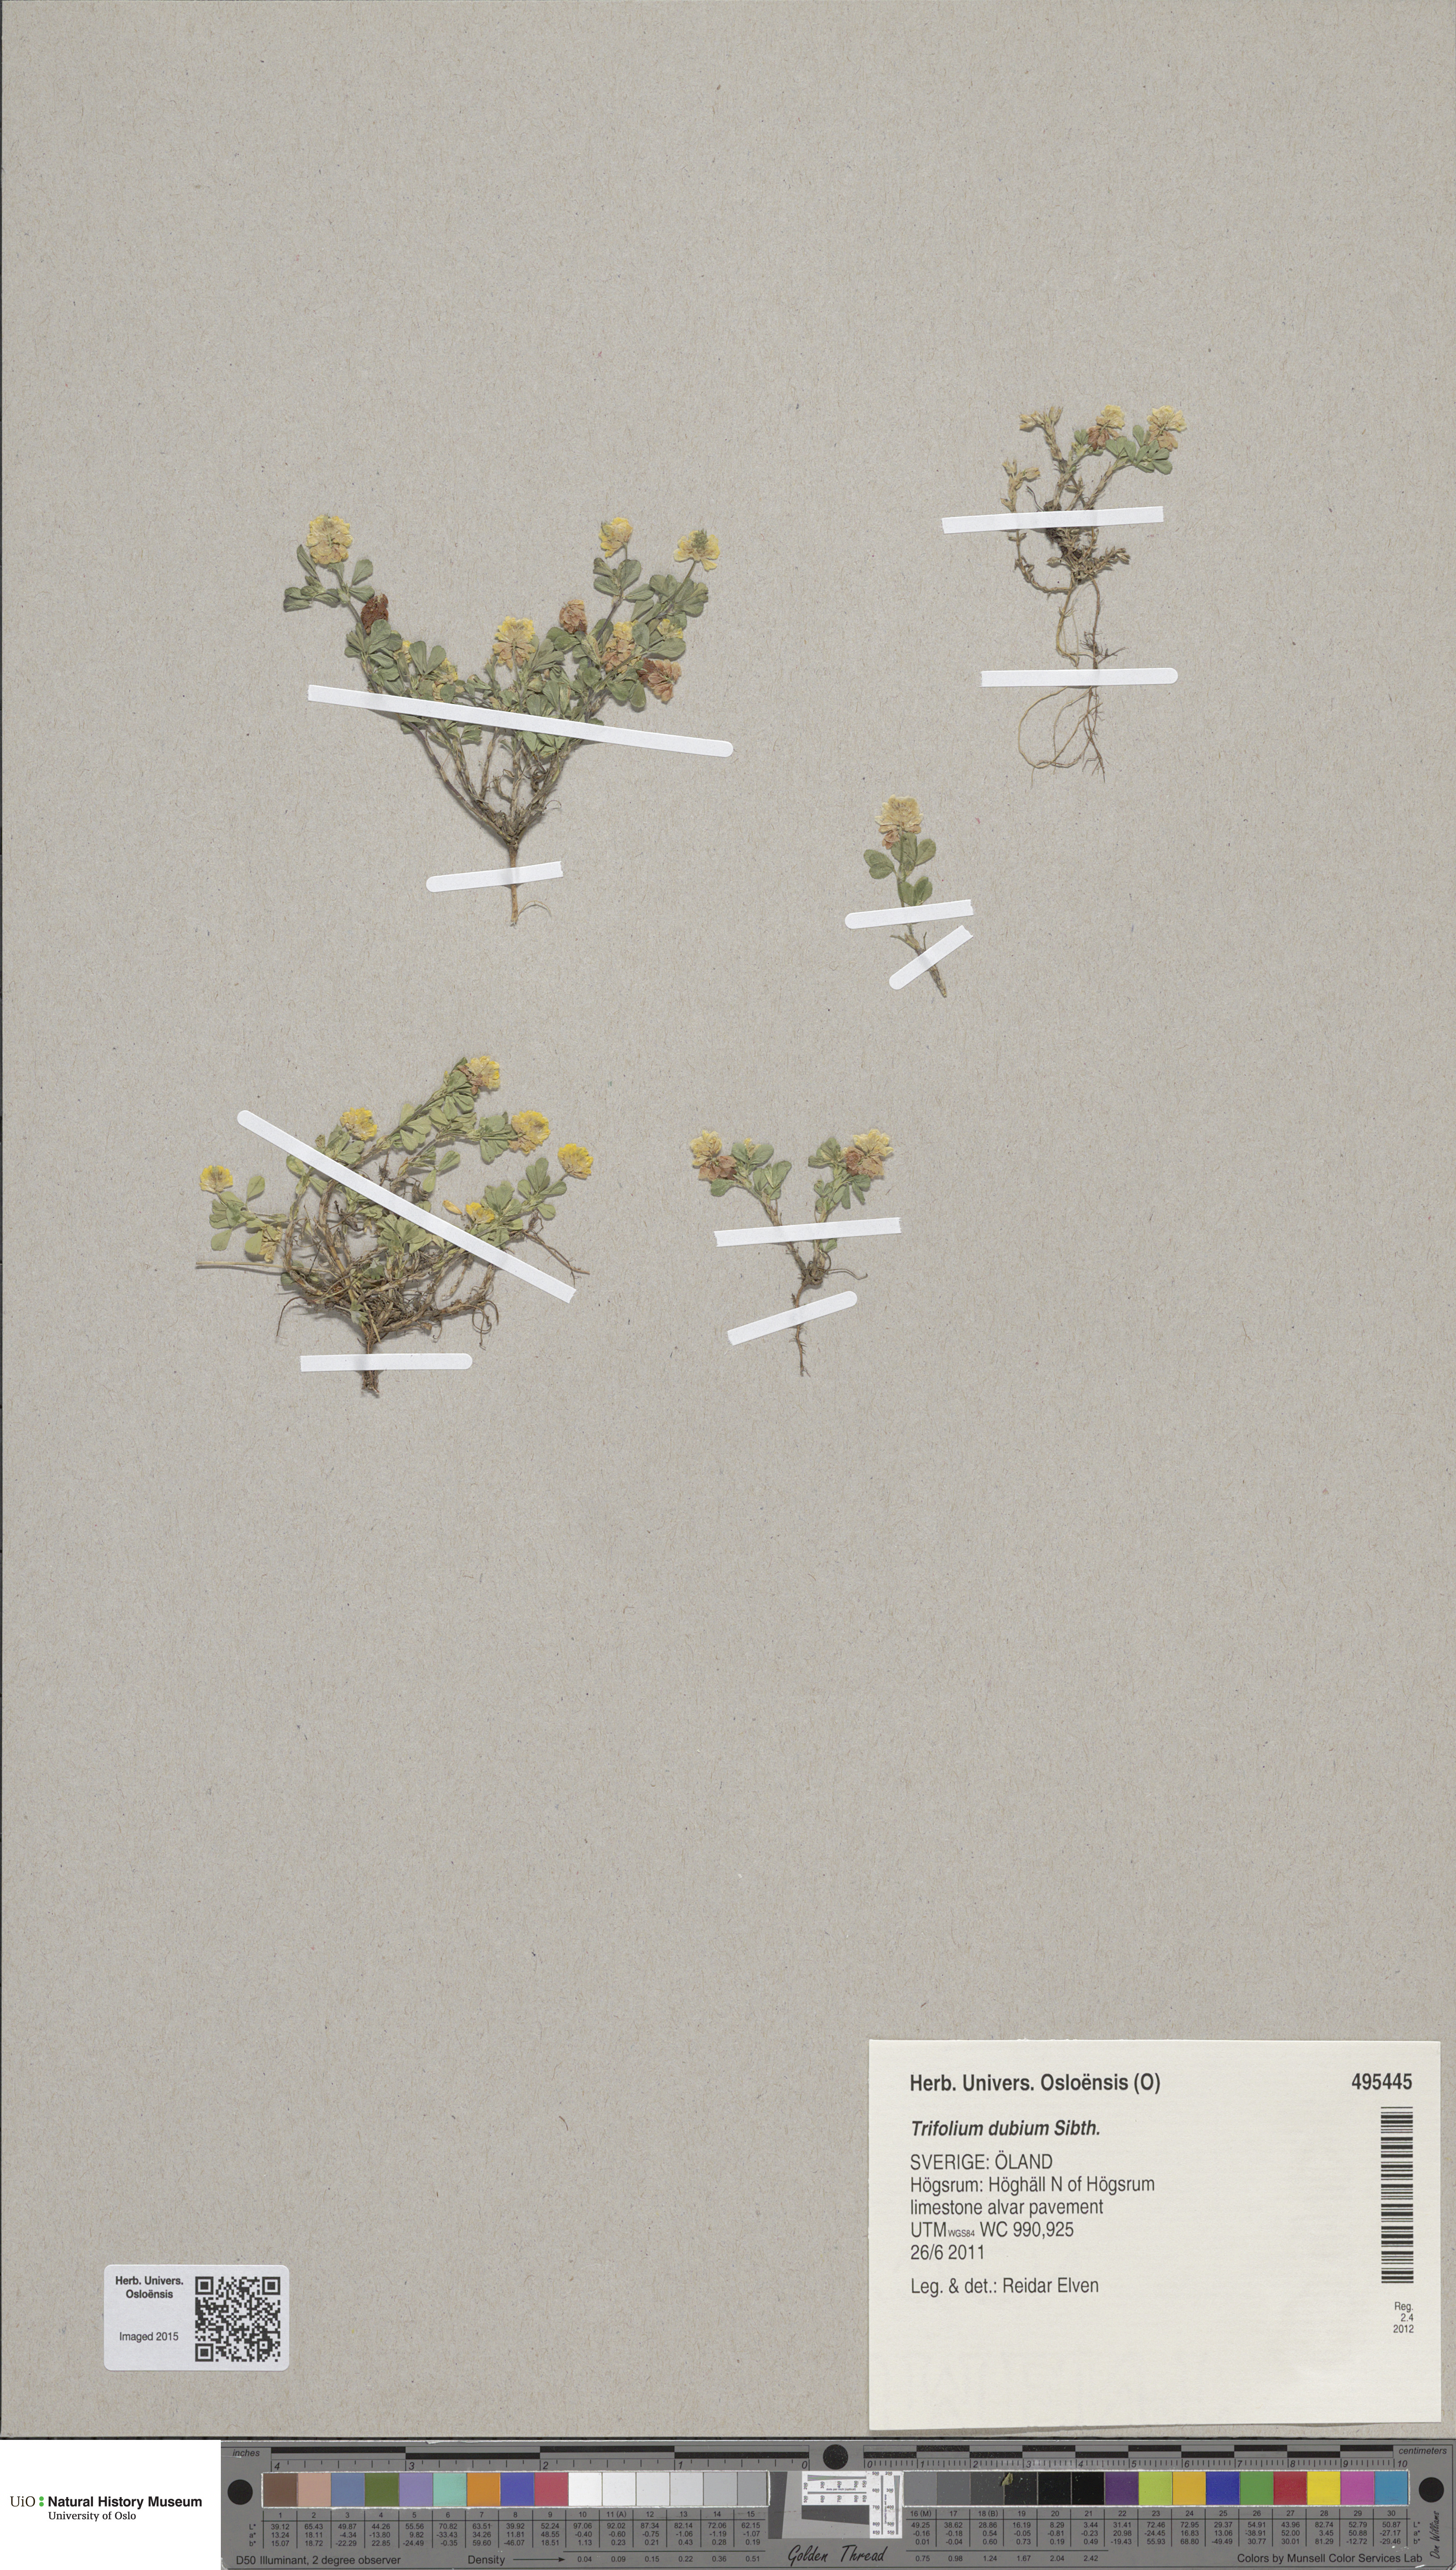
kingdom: Plantae
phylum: Tracheophyta
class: Magnoliopsida
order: Fabales
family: Fabaceae
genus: Trifolium
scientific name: Trifolium dubium
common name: Suckling clover
